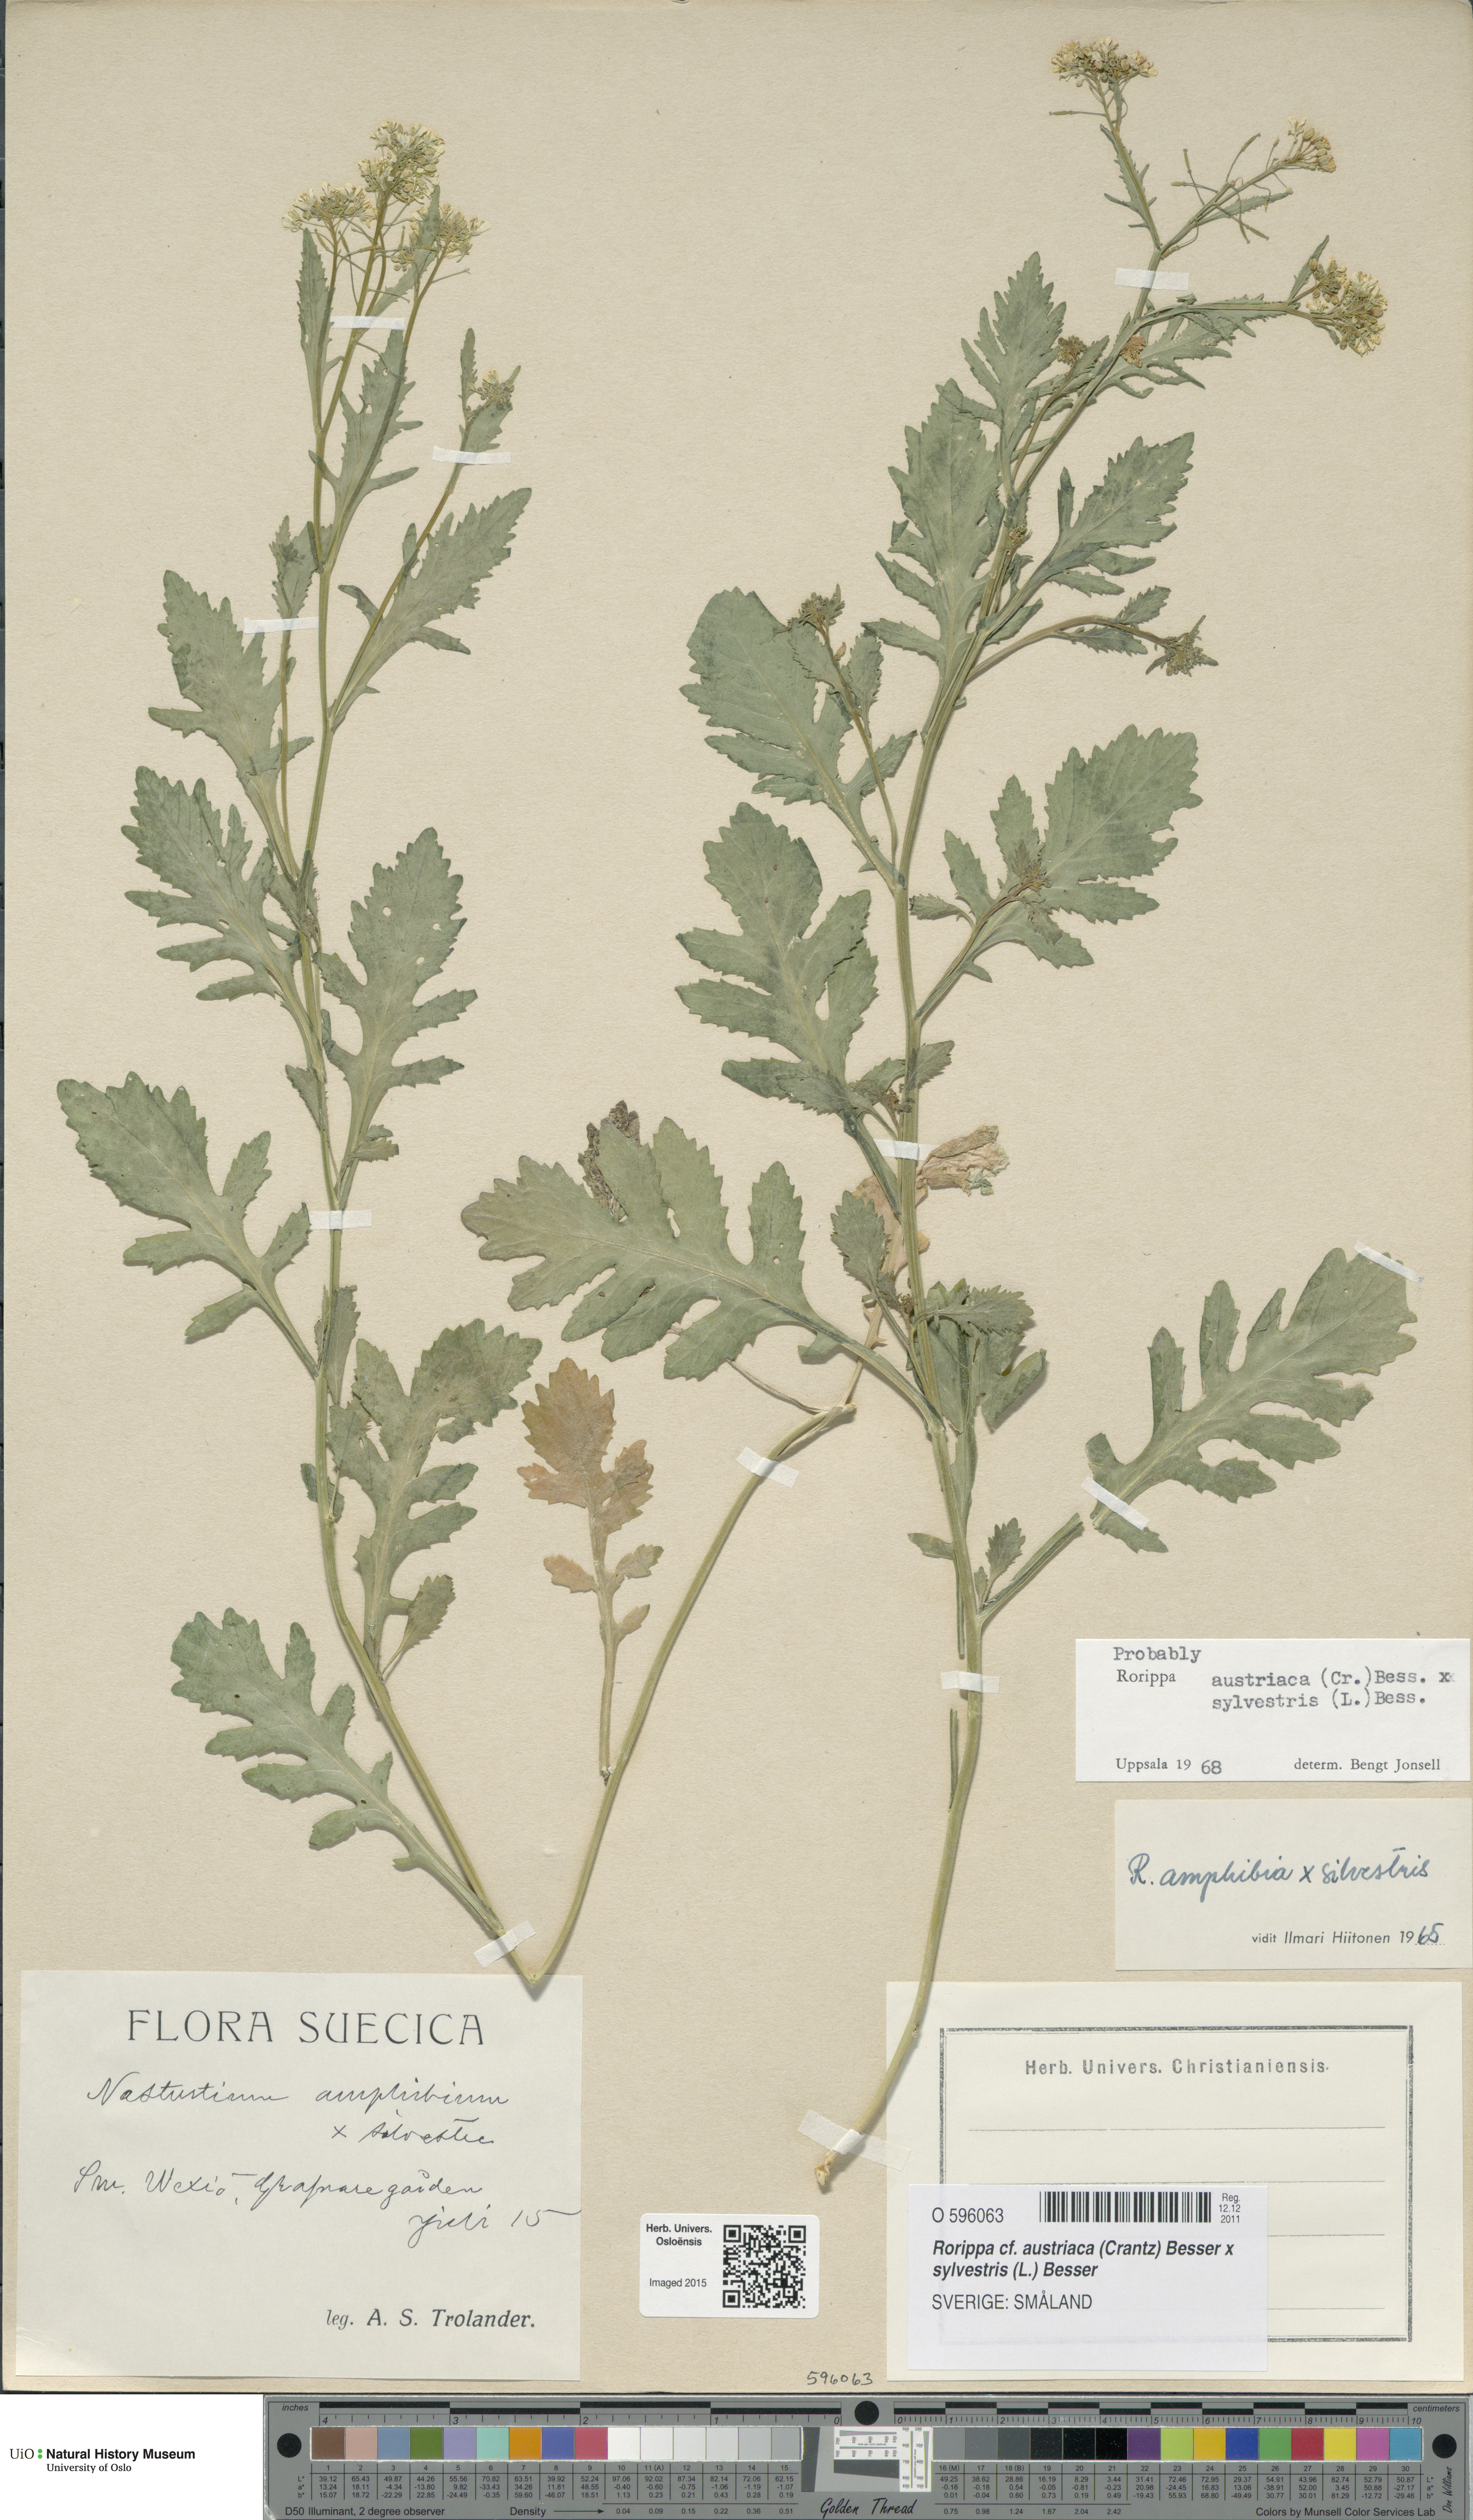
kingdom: Plantae
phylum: Tracheophyta
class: Magnoliopsida
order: Brassicales
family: Brassicaceae
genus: Rorippa
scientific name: Rorippa
